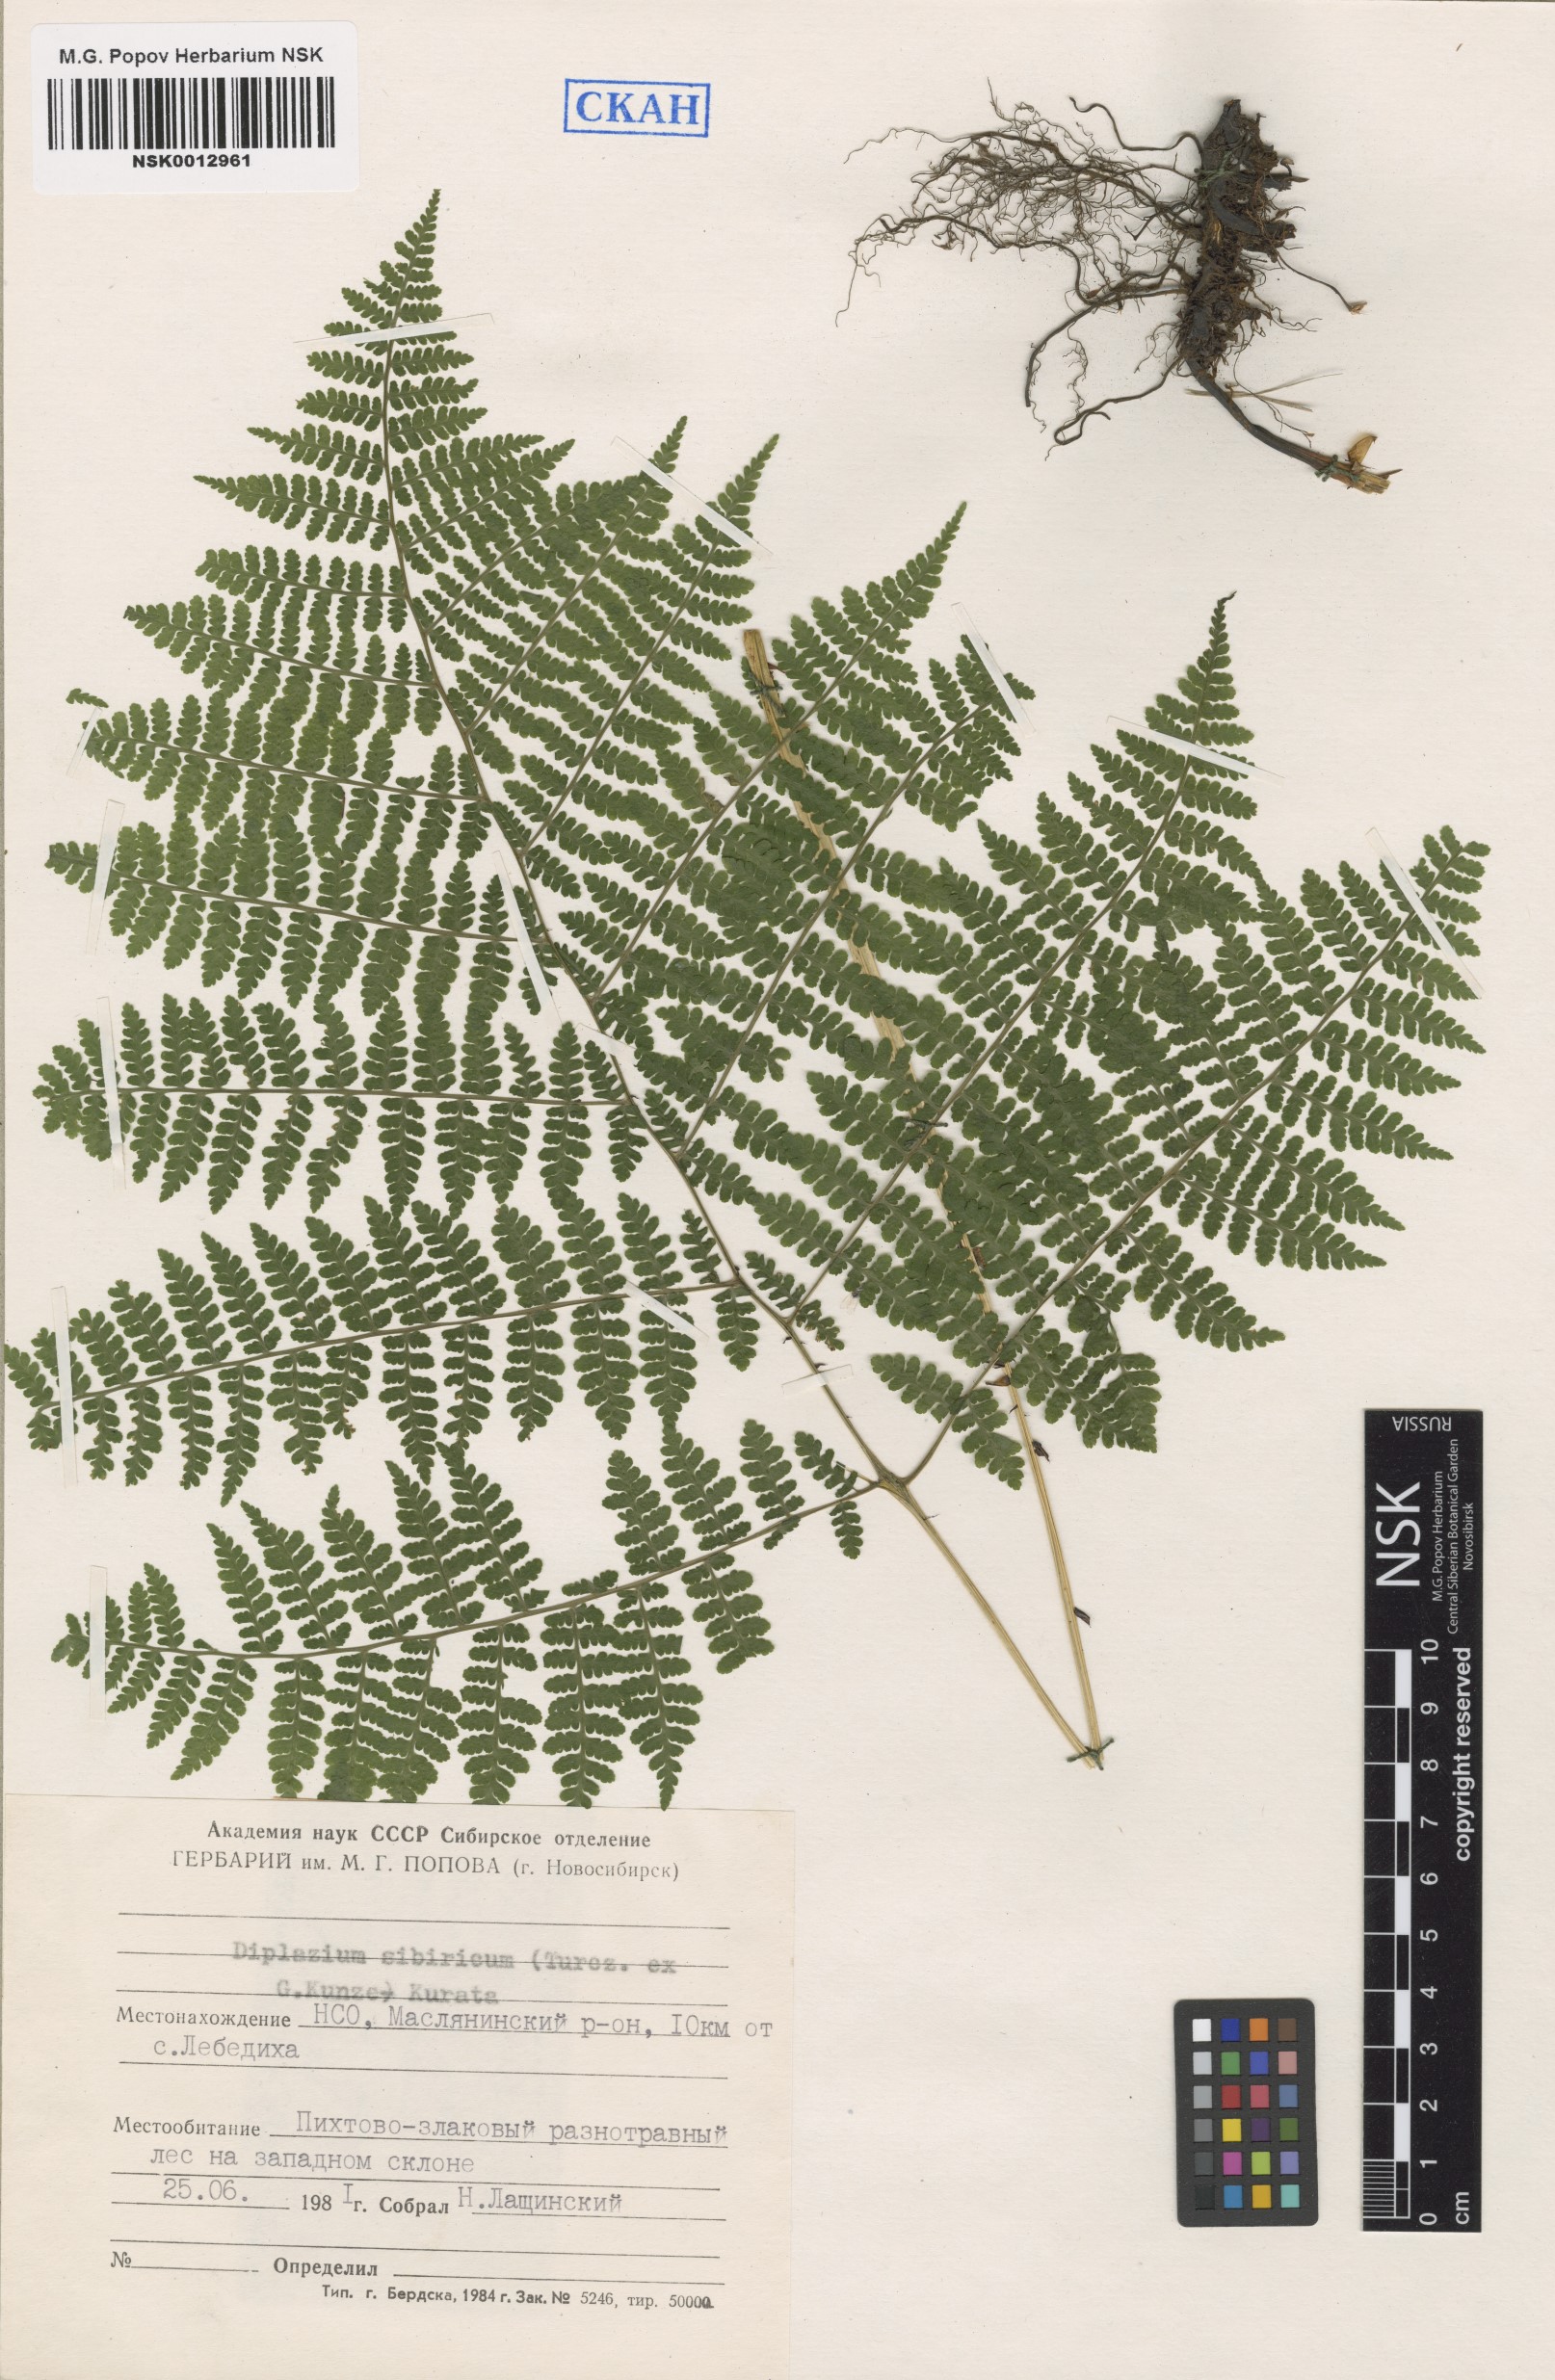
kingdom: Plantae
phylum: Tracheophyta
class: Polypodiopsida
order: Polypodiales
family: Athyriaceae
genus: Diplazium
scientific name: Diplazium sibiricum
